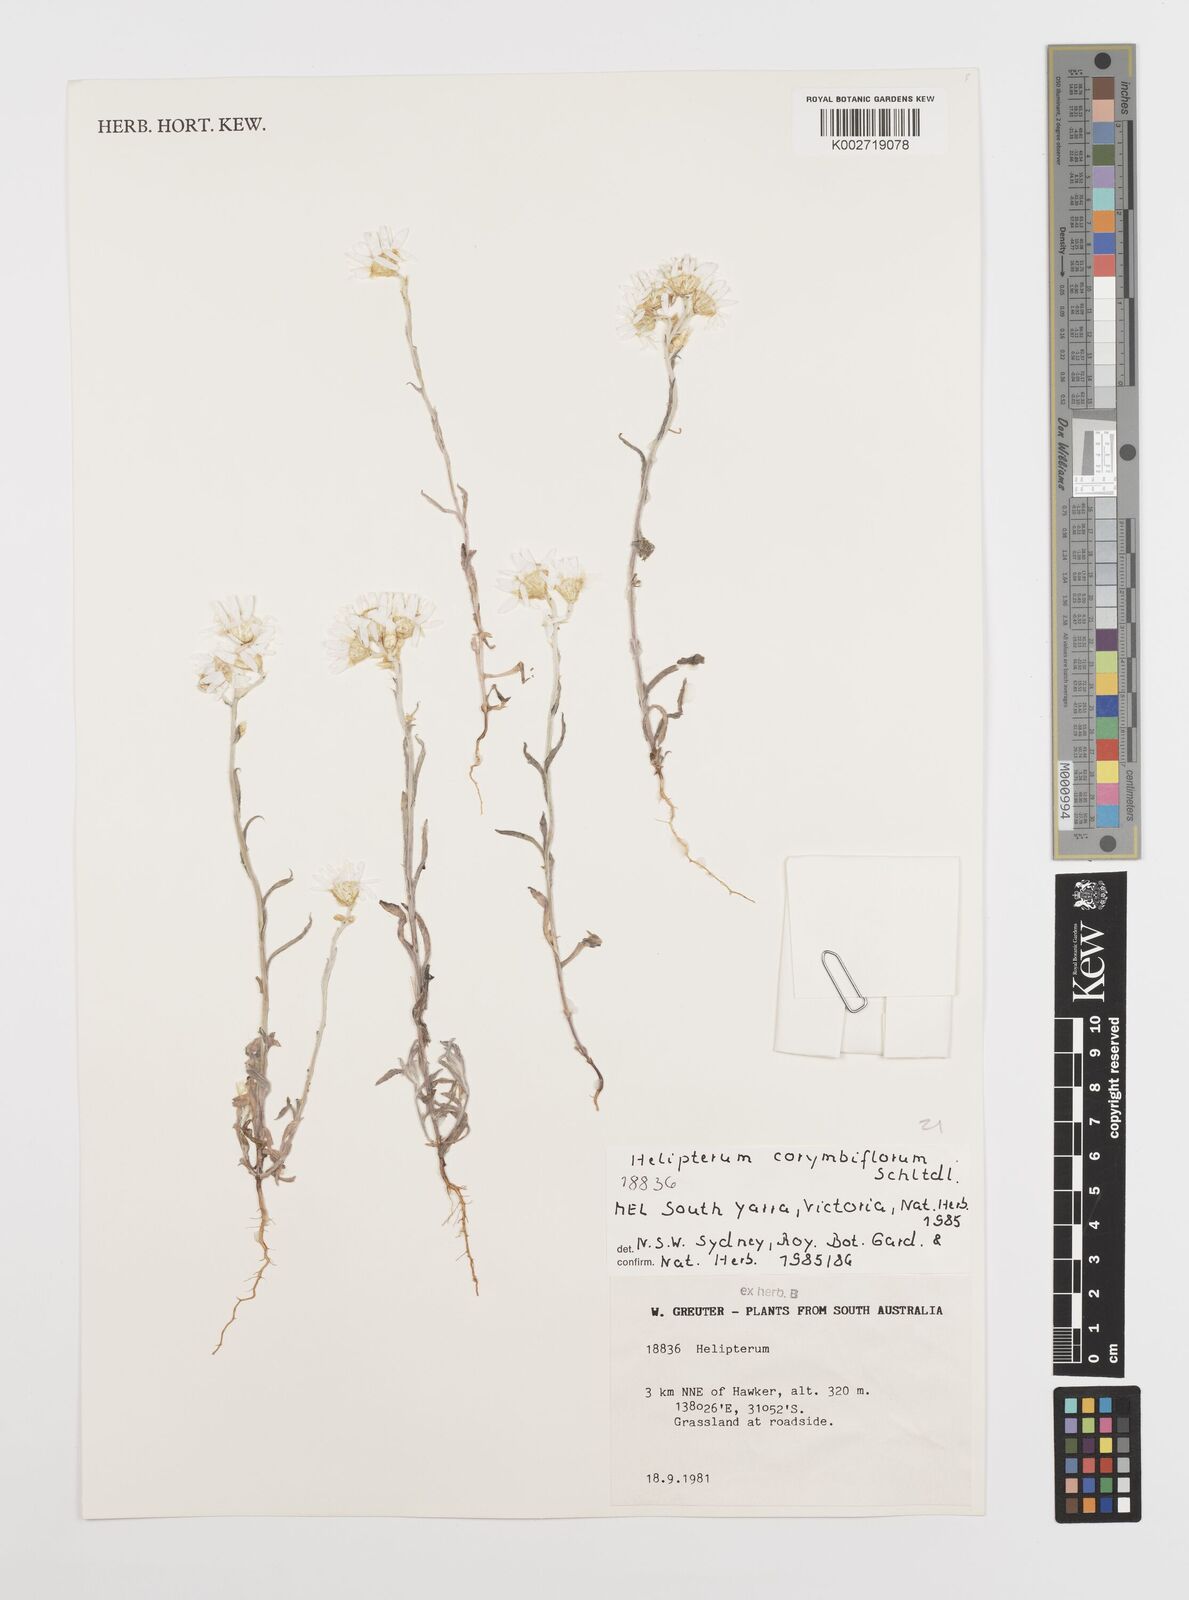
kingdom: Plantae
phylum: Tracheophyta
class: Magnoliopsida
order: Asterales
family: Asteraceae
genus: Rhodanthe
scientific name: Rhodanthe corymbiflora
